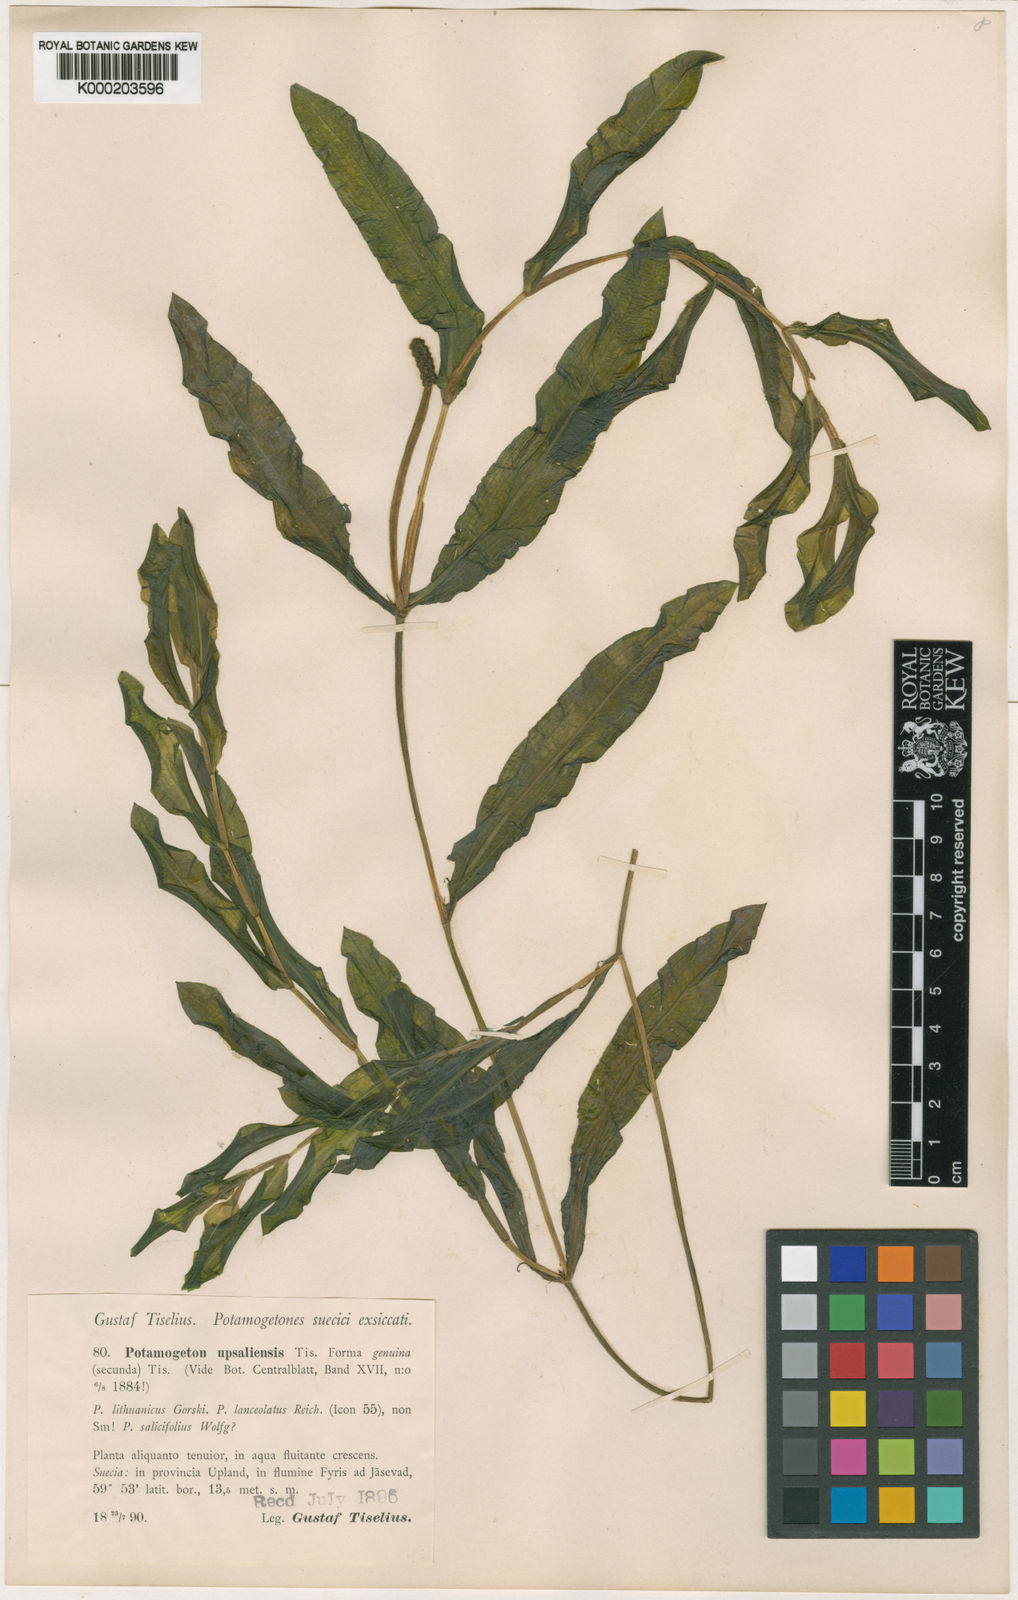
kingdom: Plantae
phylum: Tracheophyta
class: Liliopsida
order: Alismatales
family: Potamogetonaceae
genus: Potamogeton
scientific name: Potamogeton salicifolius
